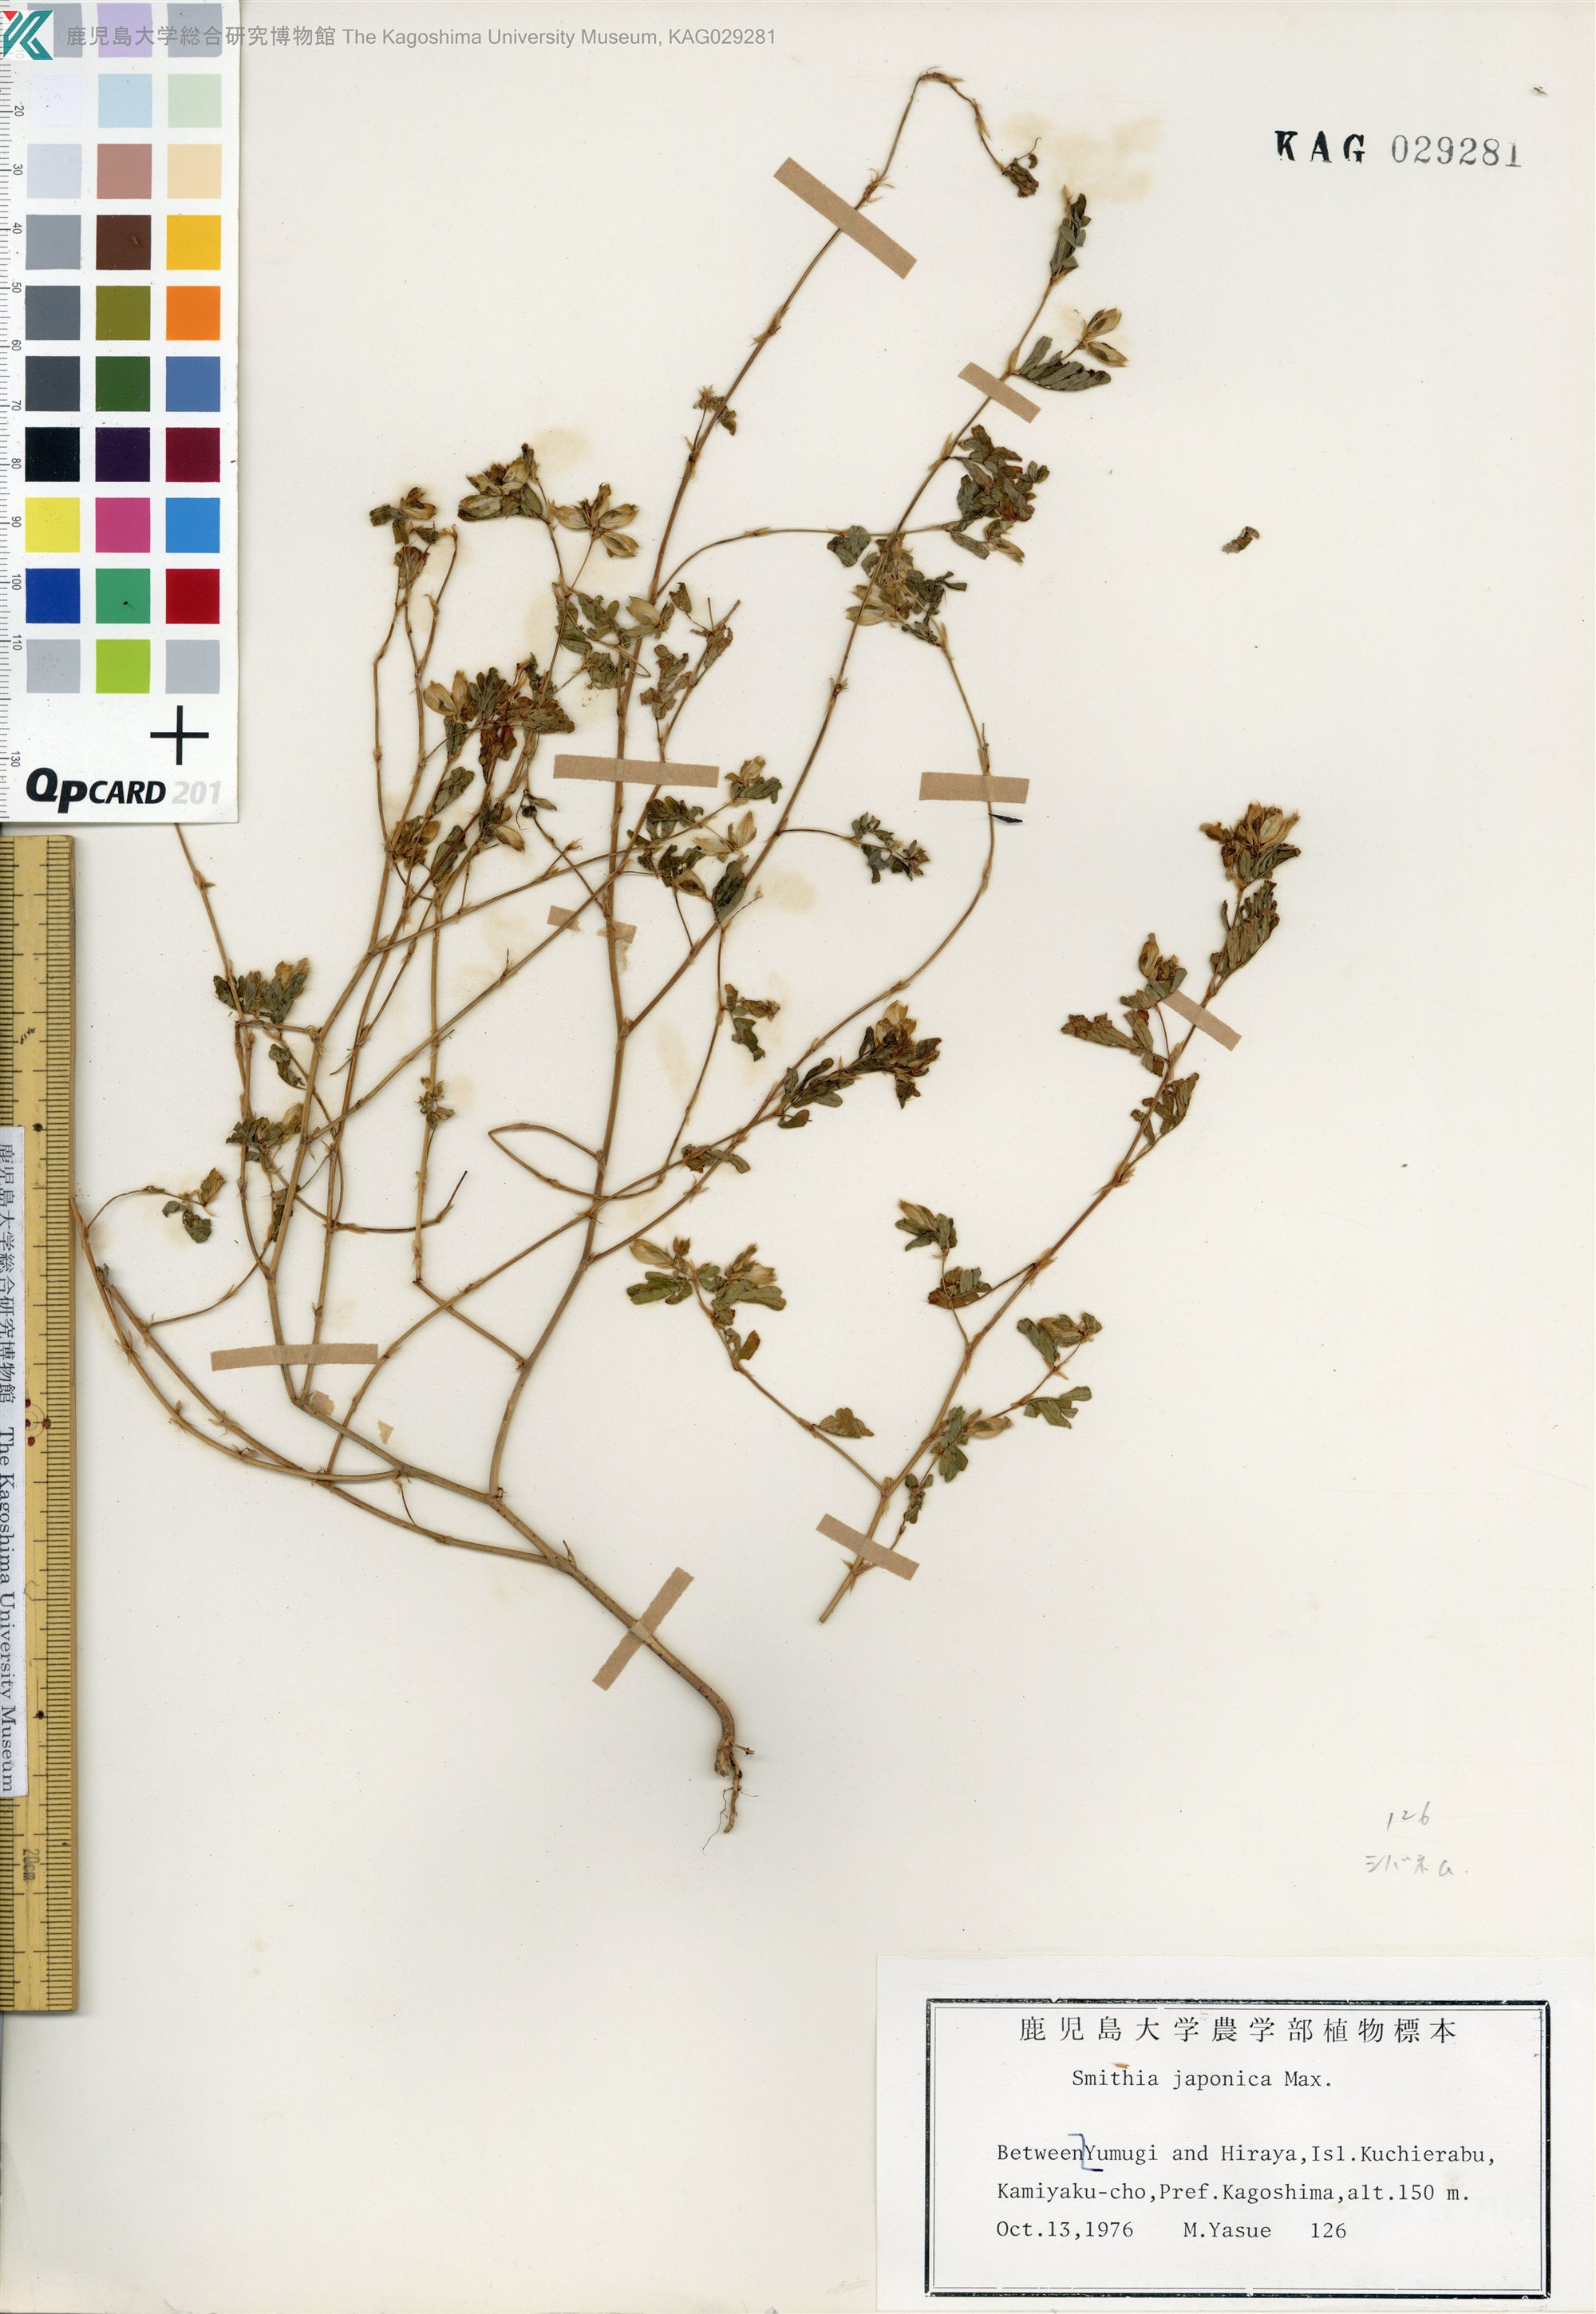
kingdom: Plantae
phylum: Tracheophyta
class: Magnoliopsida
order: Fabales
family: Fabaceae
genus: Smithia
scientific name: Smithia ciliata
